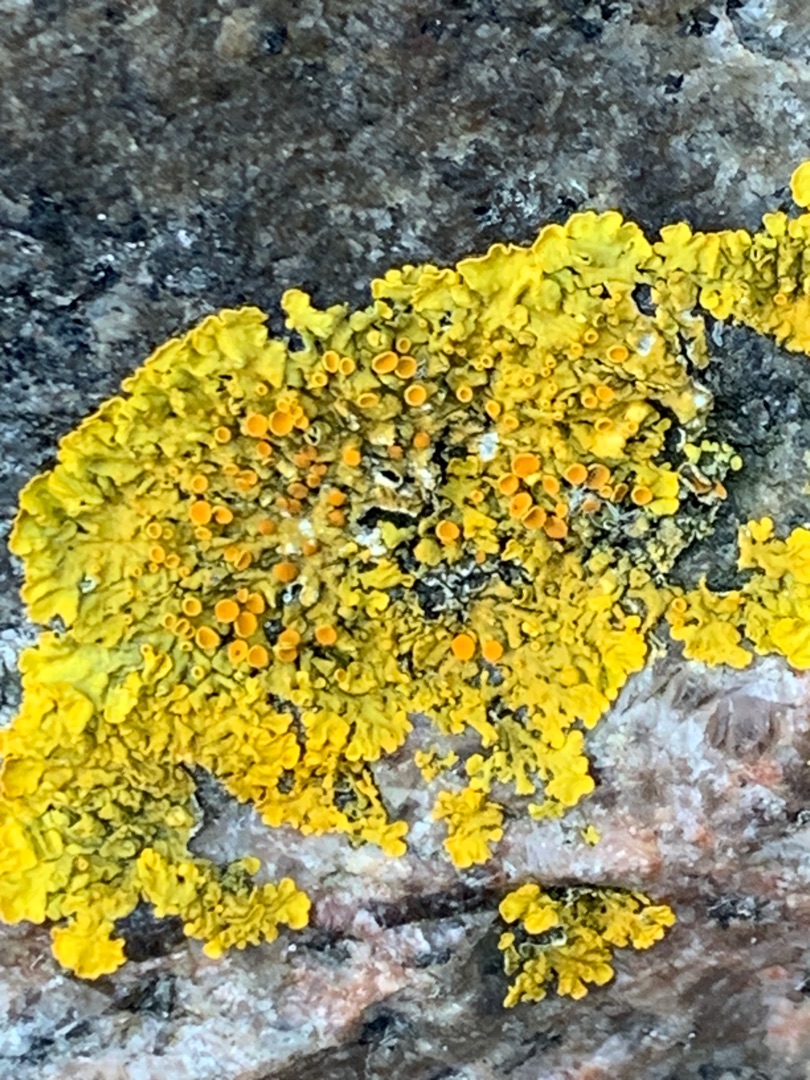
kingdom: Fungi
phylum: Ascomycota
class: Lecanoromycetes
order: Teloschistales
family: Teloschistaceae
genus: Xanthoria
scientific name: Xanthoria parietina
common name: Almindelig væggelav
